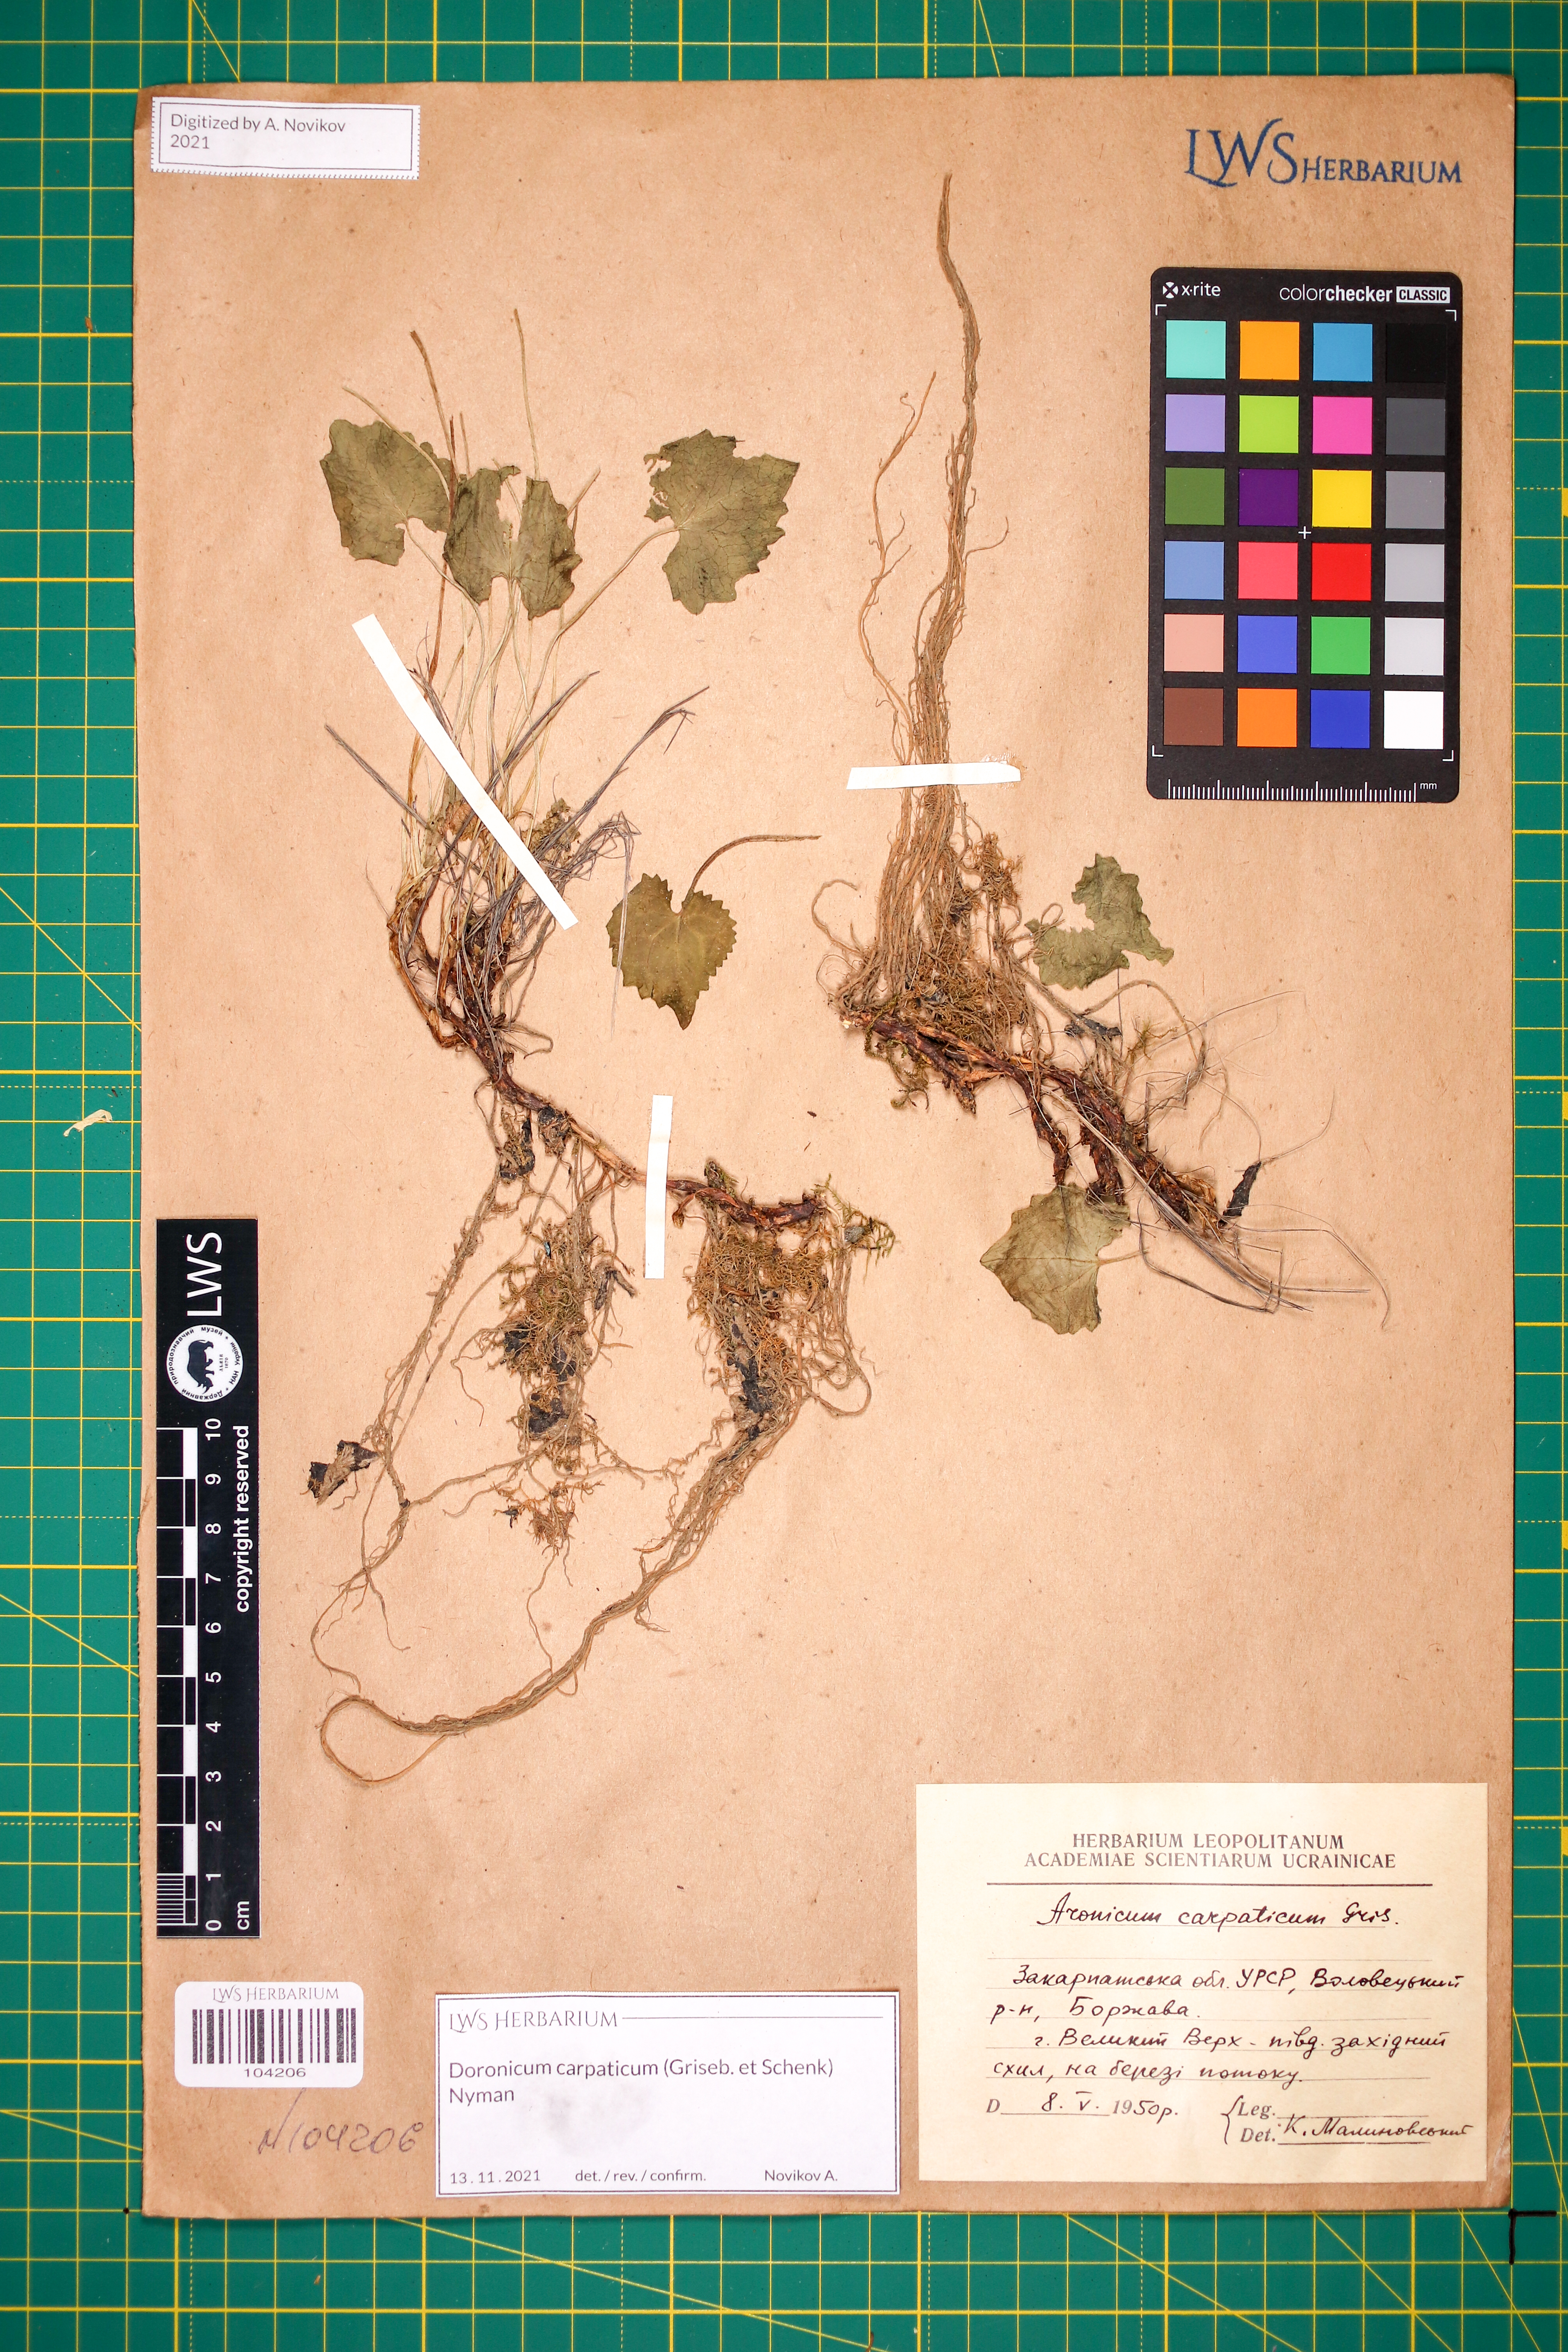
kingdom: Plantae
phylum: Tracheophyta
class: Magnoliopsida
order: Asterales
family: Asteraceae
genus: Doronicum
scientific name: Doronicum carpaticum
